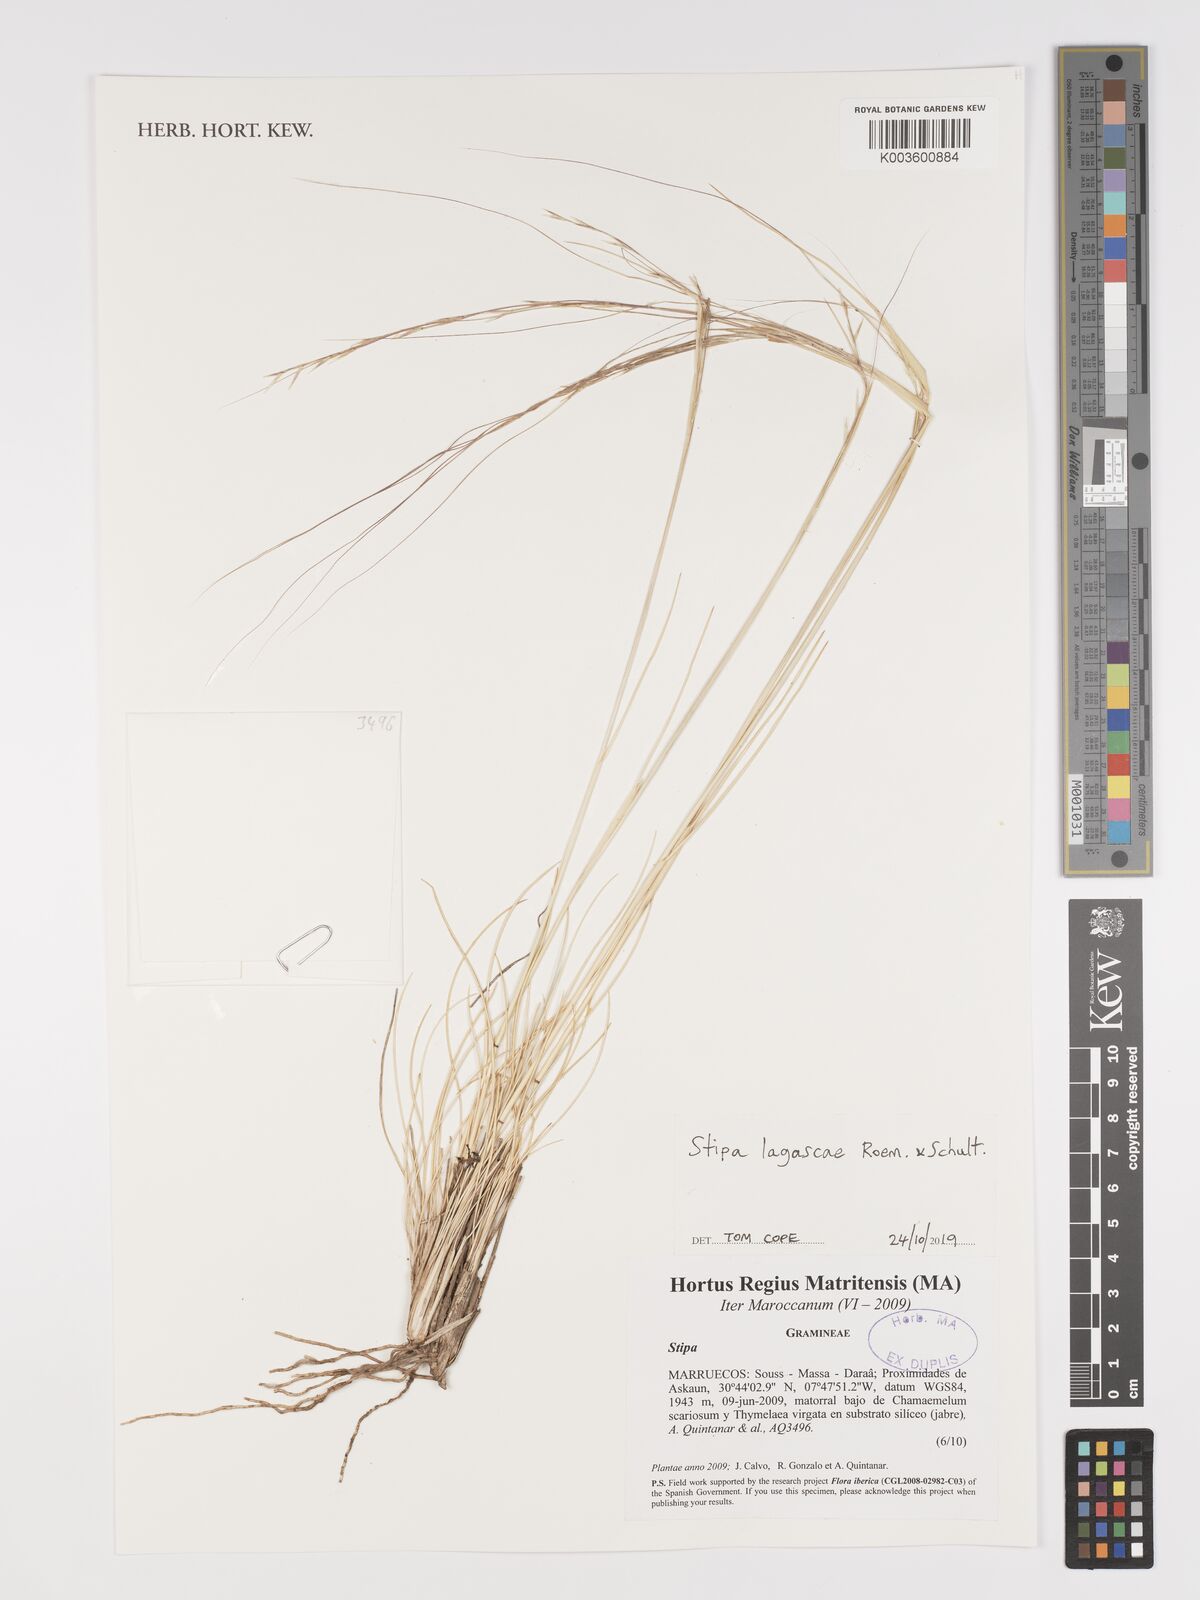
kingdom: Plantae
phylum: Tracheophyta
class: Liliopsida
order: Poales
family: Poaceae
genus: Stipa
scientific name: Stipa lagascae
